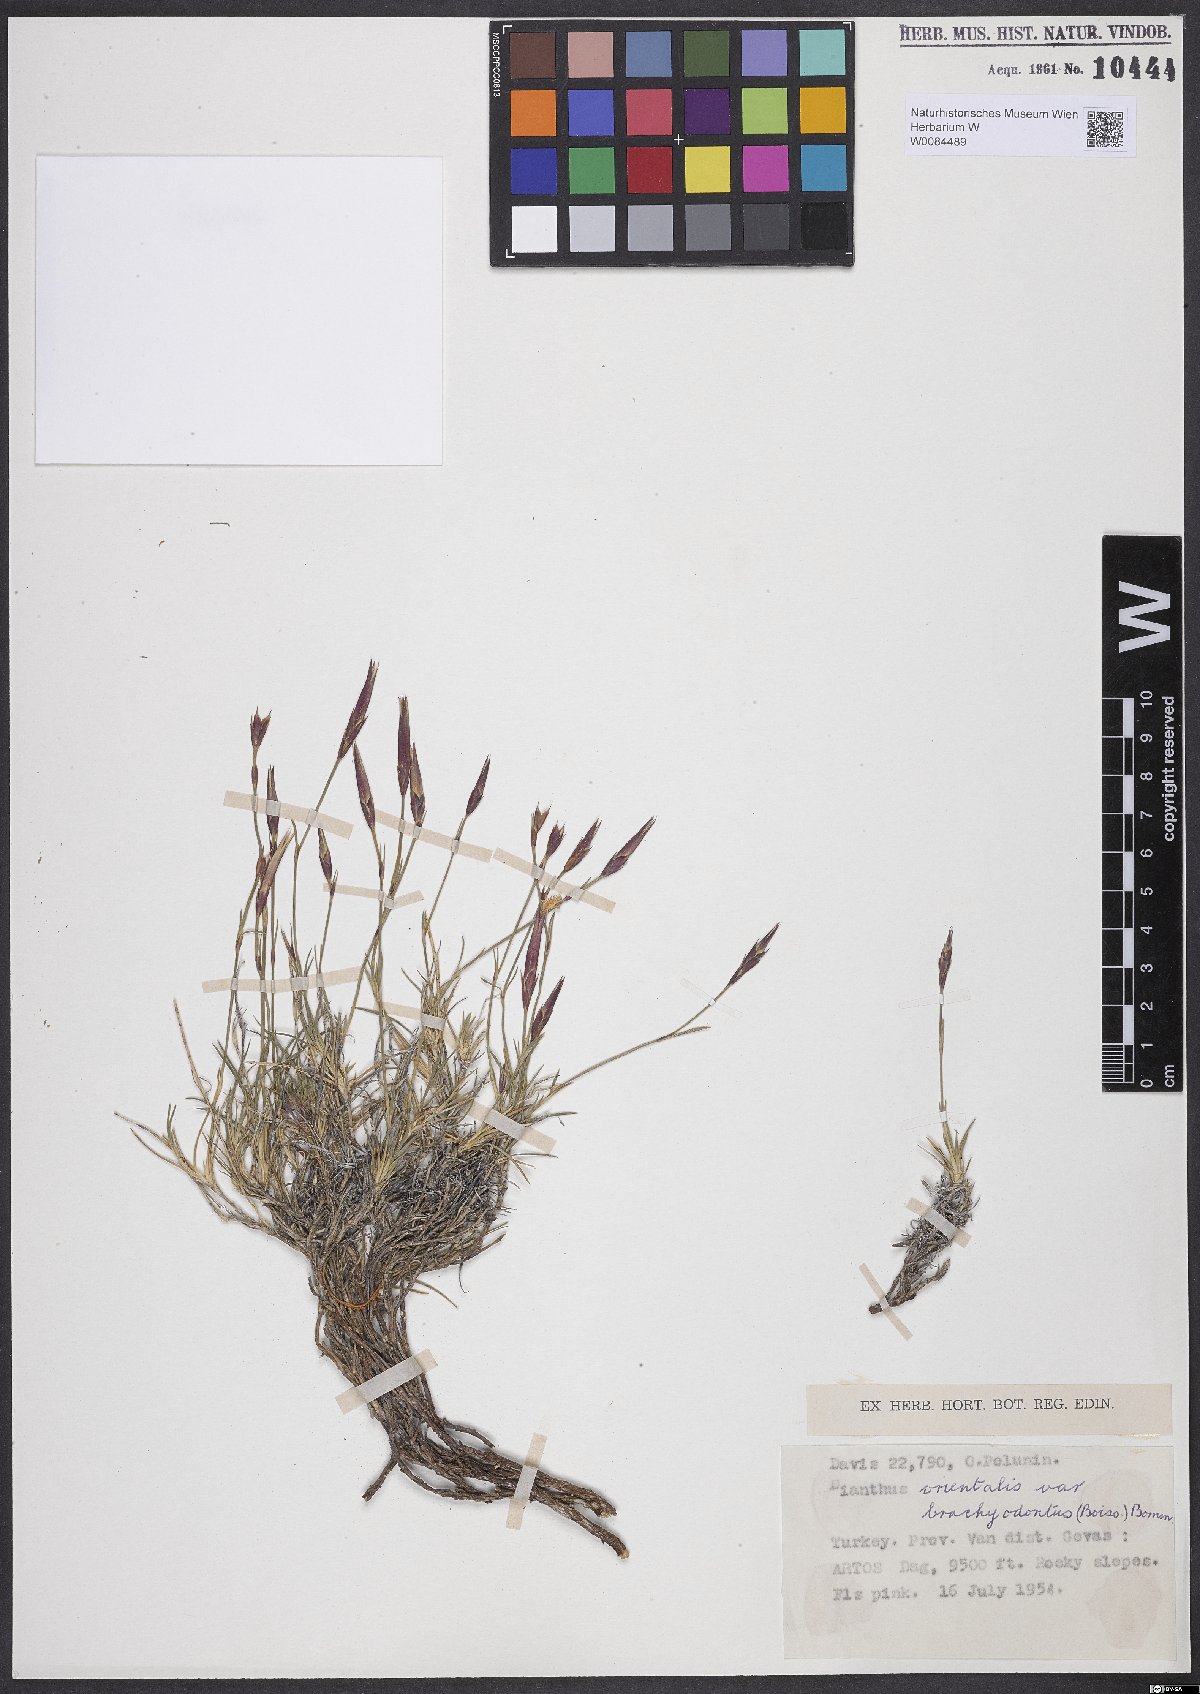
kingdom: Plantae
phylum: Tracheophyta
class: Magnoliopsida
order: Caryophyllales
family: Caryophyllaceae
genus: Dianthus
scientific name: Dianthus orientalis
